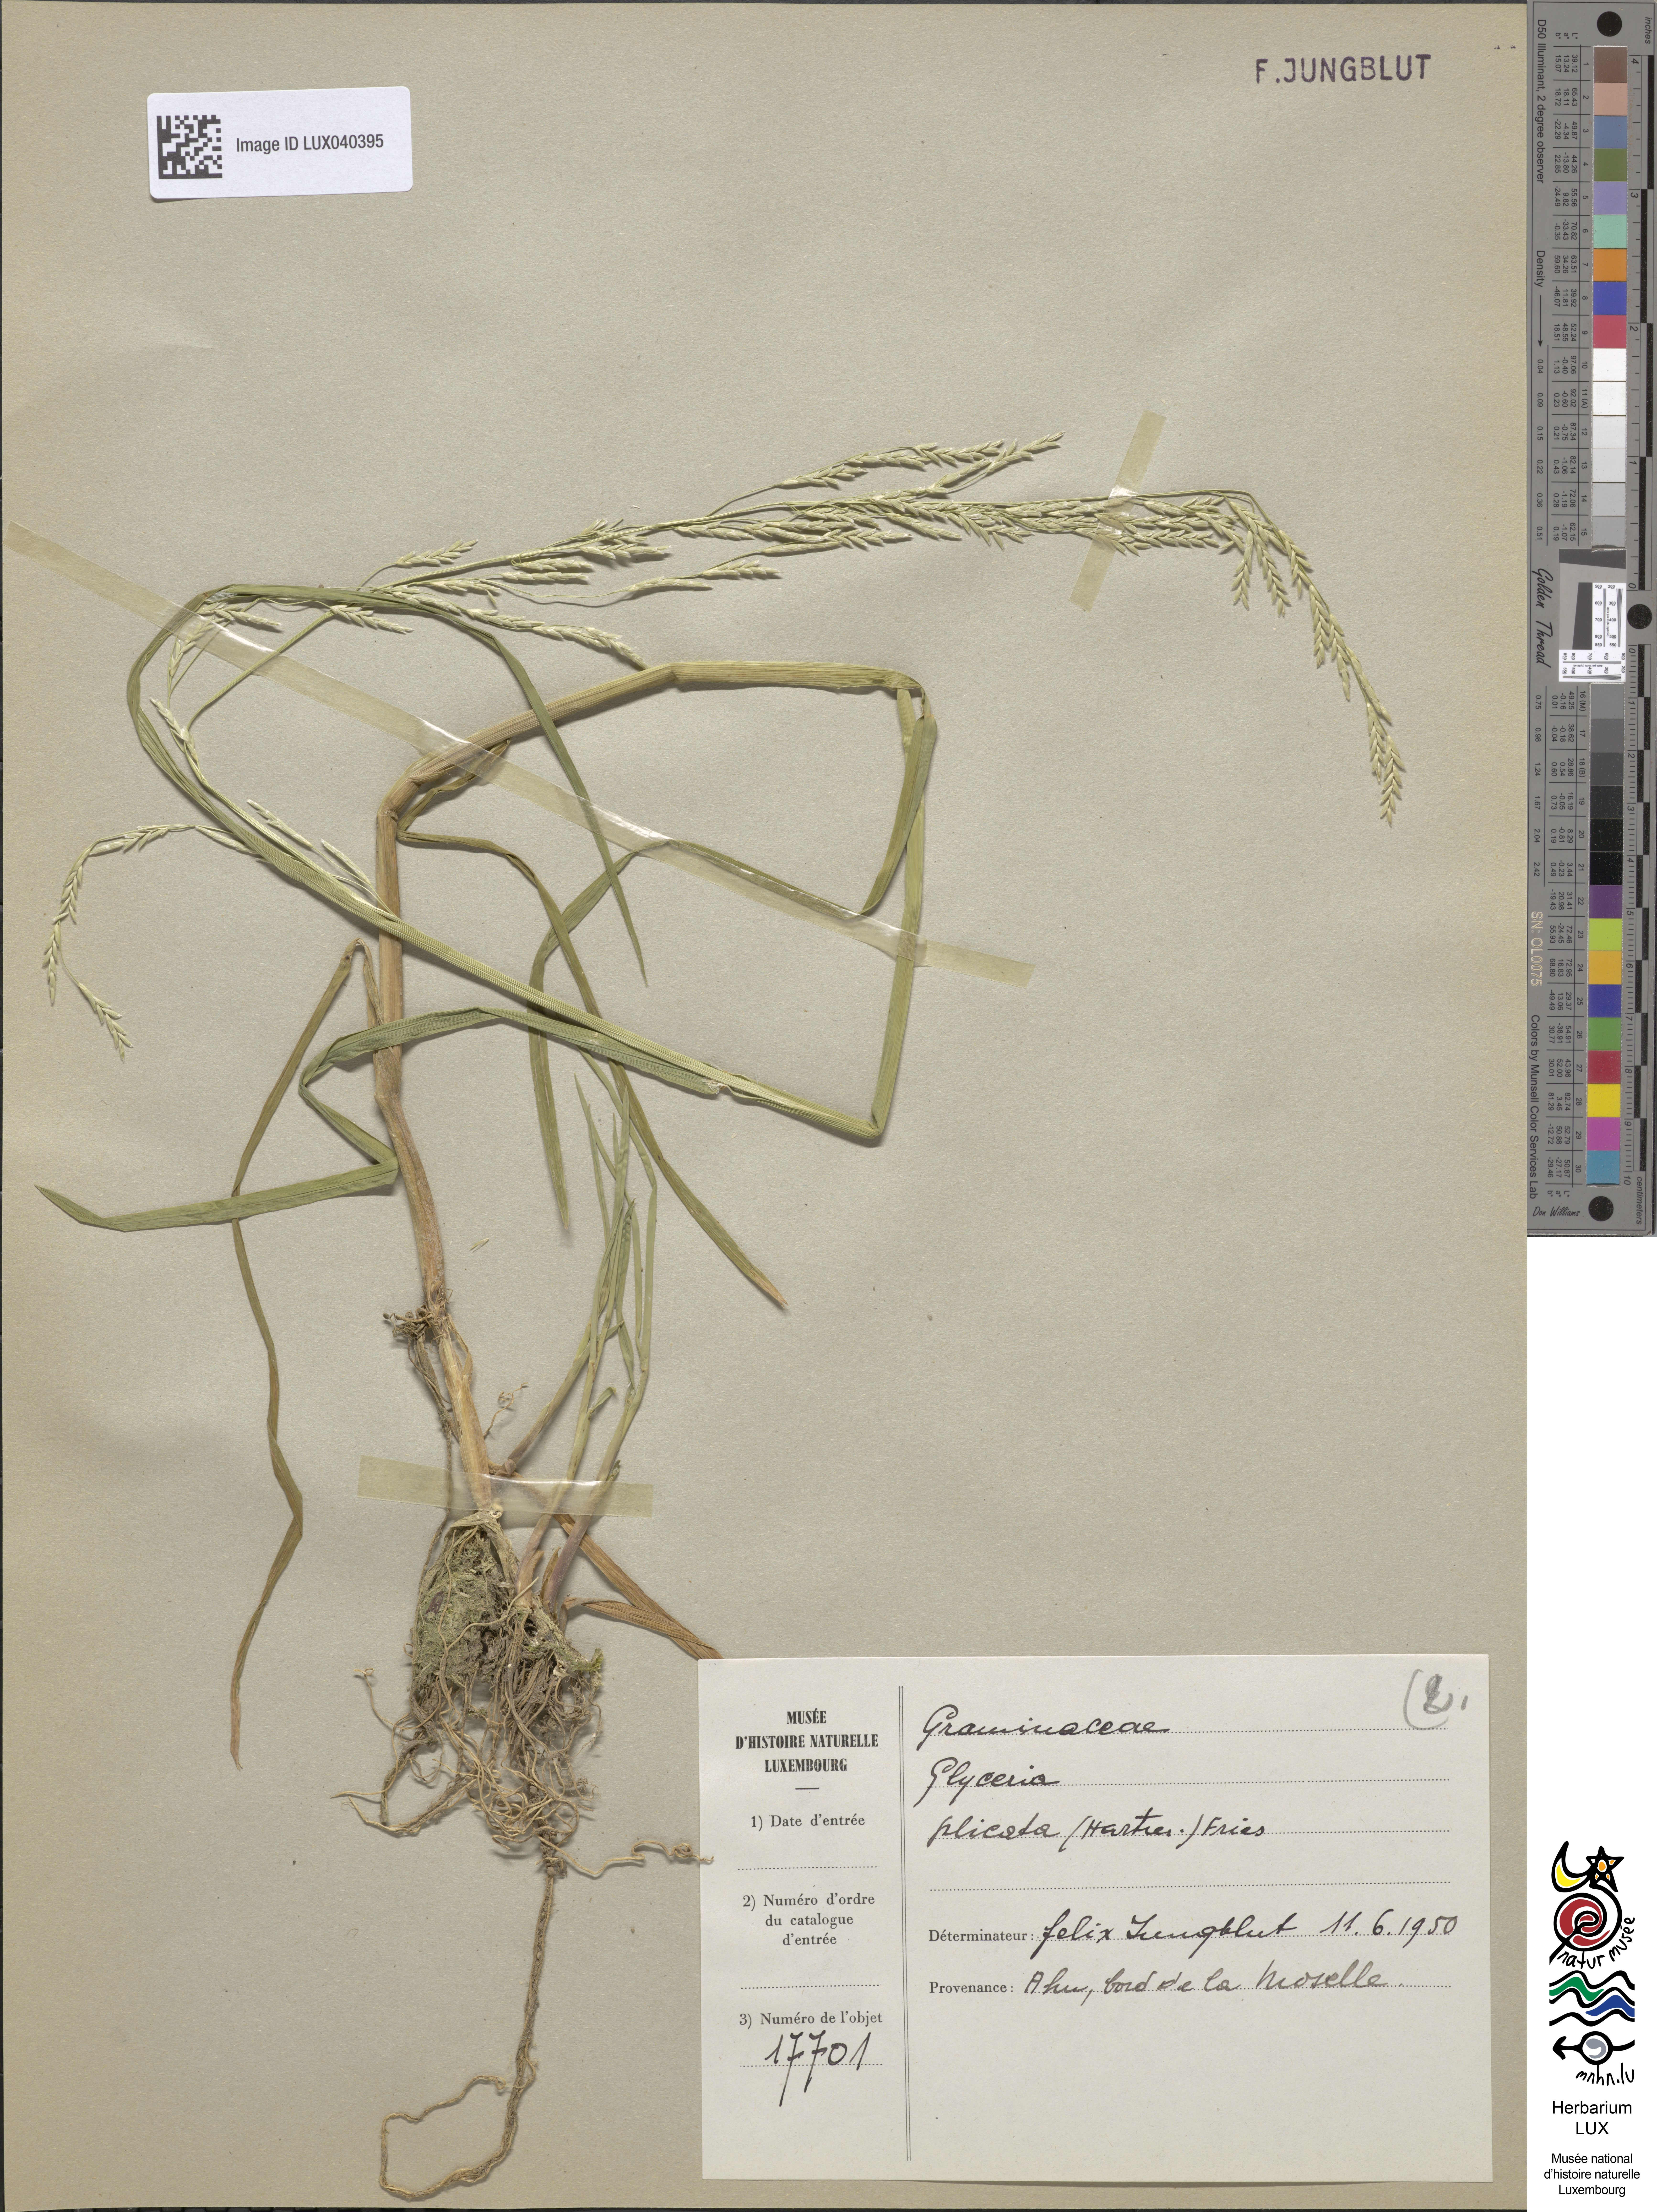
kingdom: Plantae
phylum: Tracheophyta
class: Liliopsida
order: Poales
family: Poaceae
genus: Glyceria
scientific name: Glyceria notata
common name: Plicate sweet-grass
